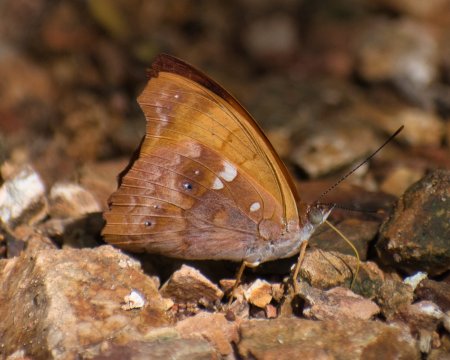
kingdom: Animalia
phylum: Arthropoda
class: Insecta
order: Lepidoptera
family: Nymphalidae
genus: Temenis
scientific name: Temenis laothoe
